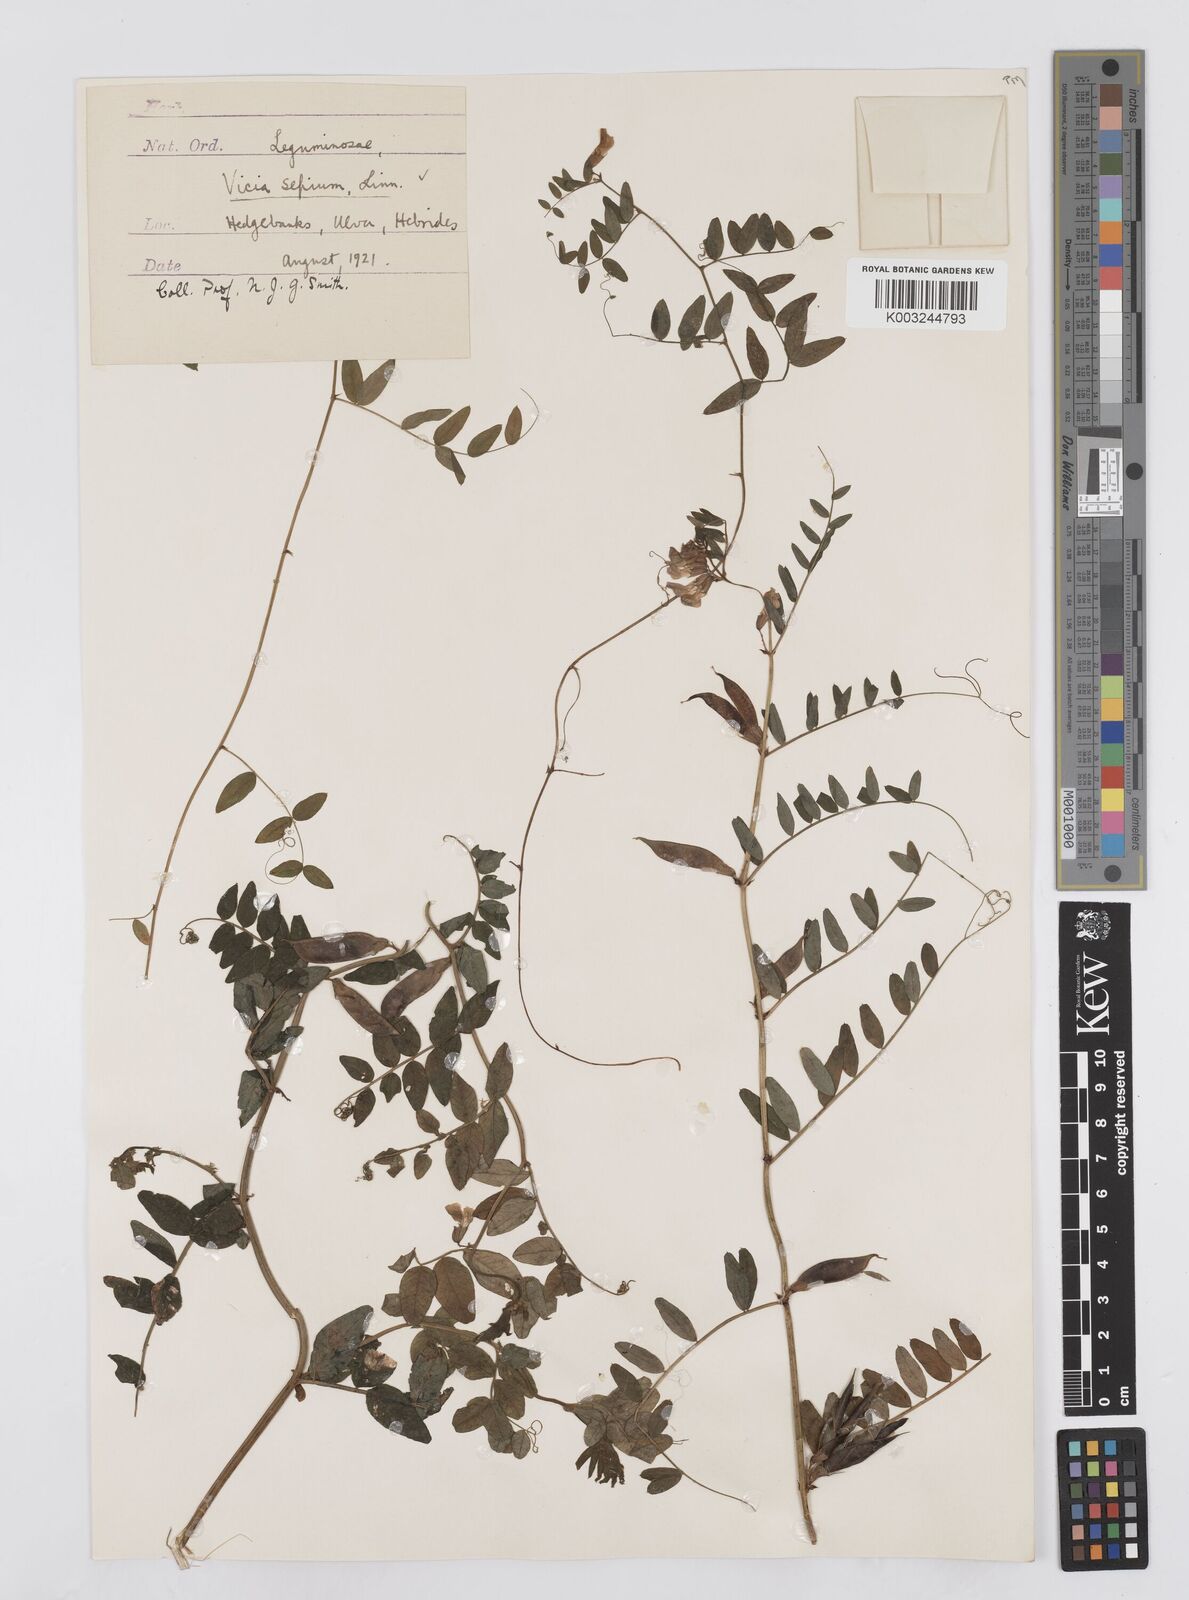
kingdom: Plantae
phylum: Tracheophyta
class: Magnoliopsida
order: Fabales
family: Fabaceae
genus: Vicia
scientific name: Vicia sepium
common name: Bush vetch
